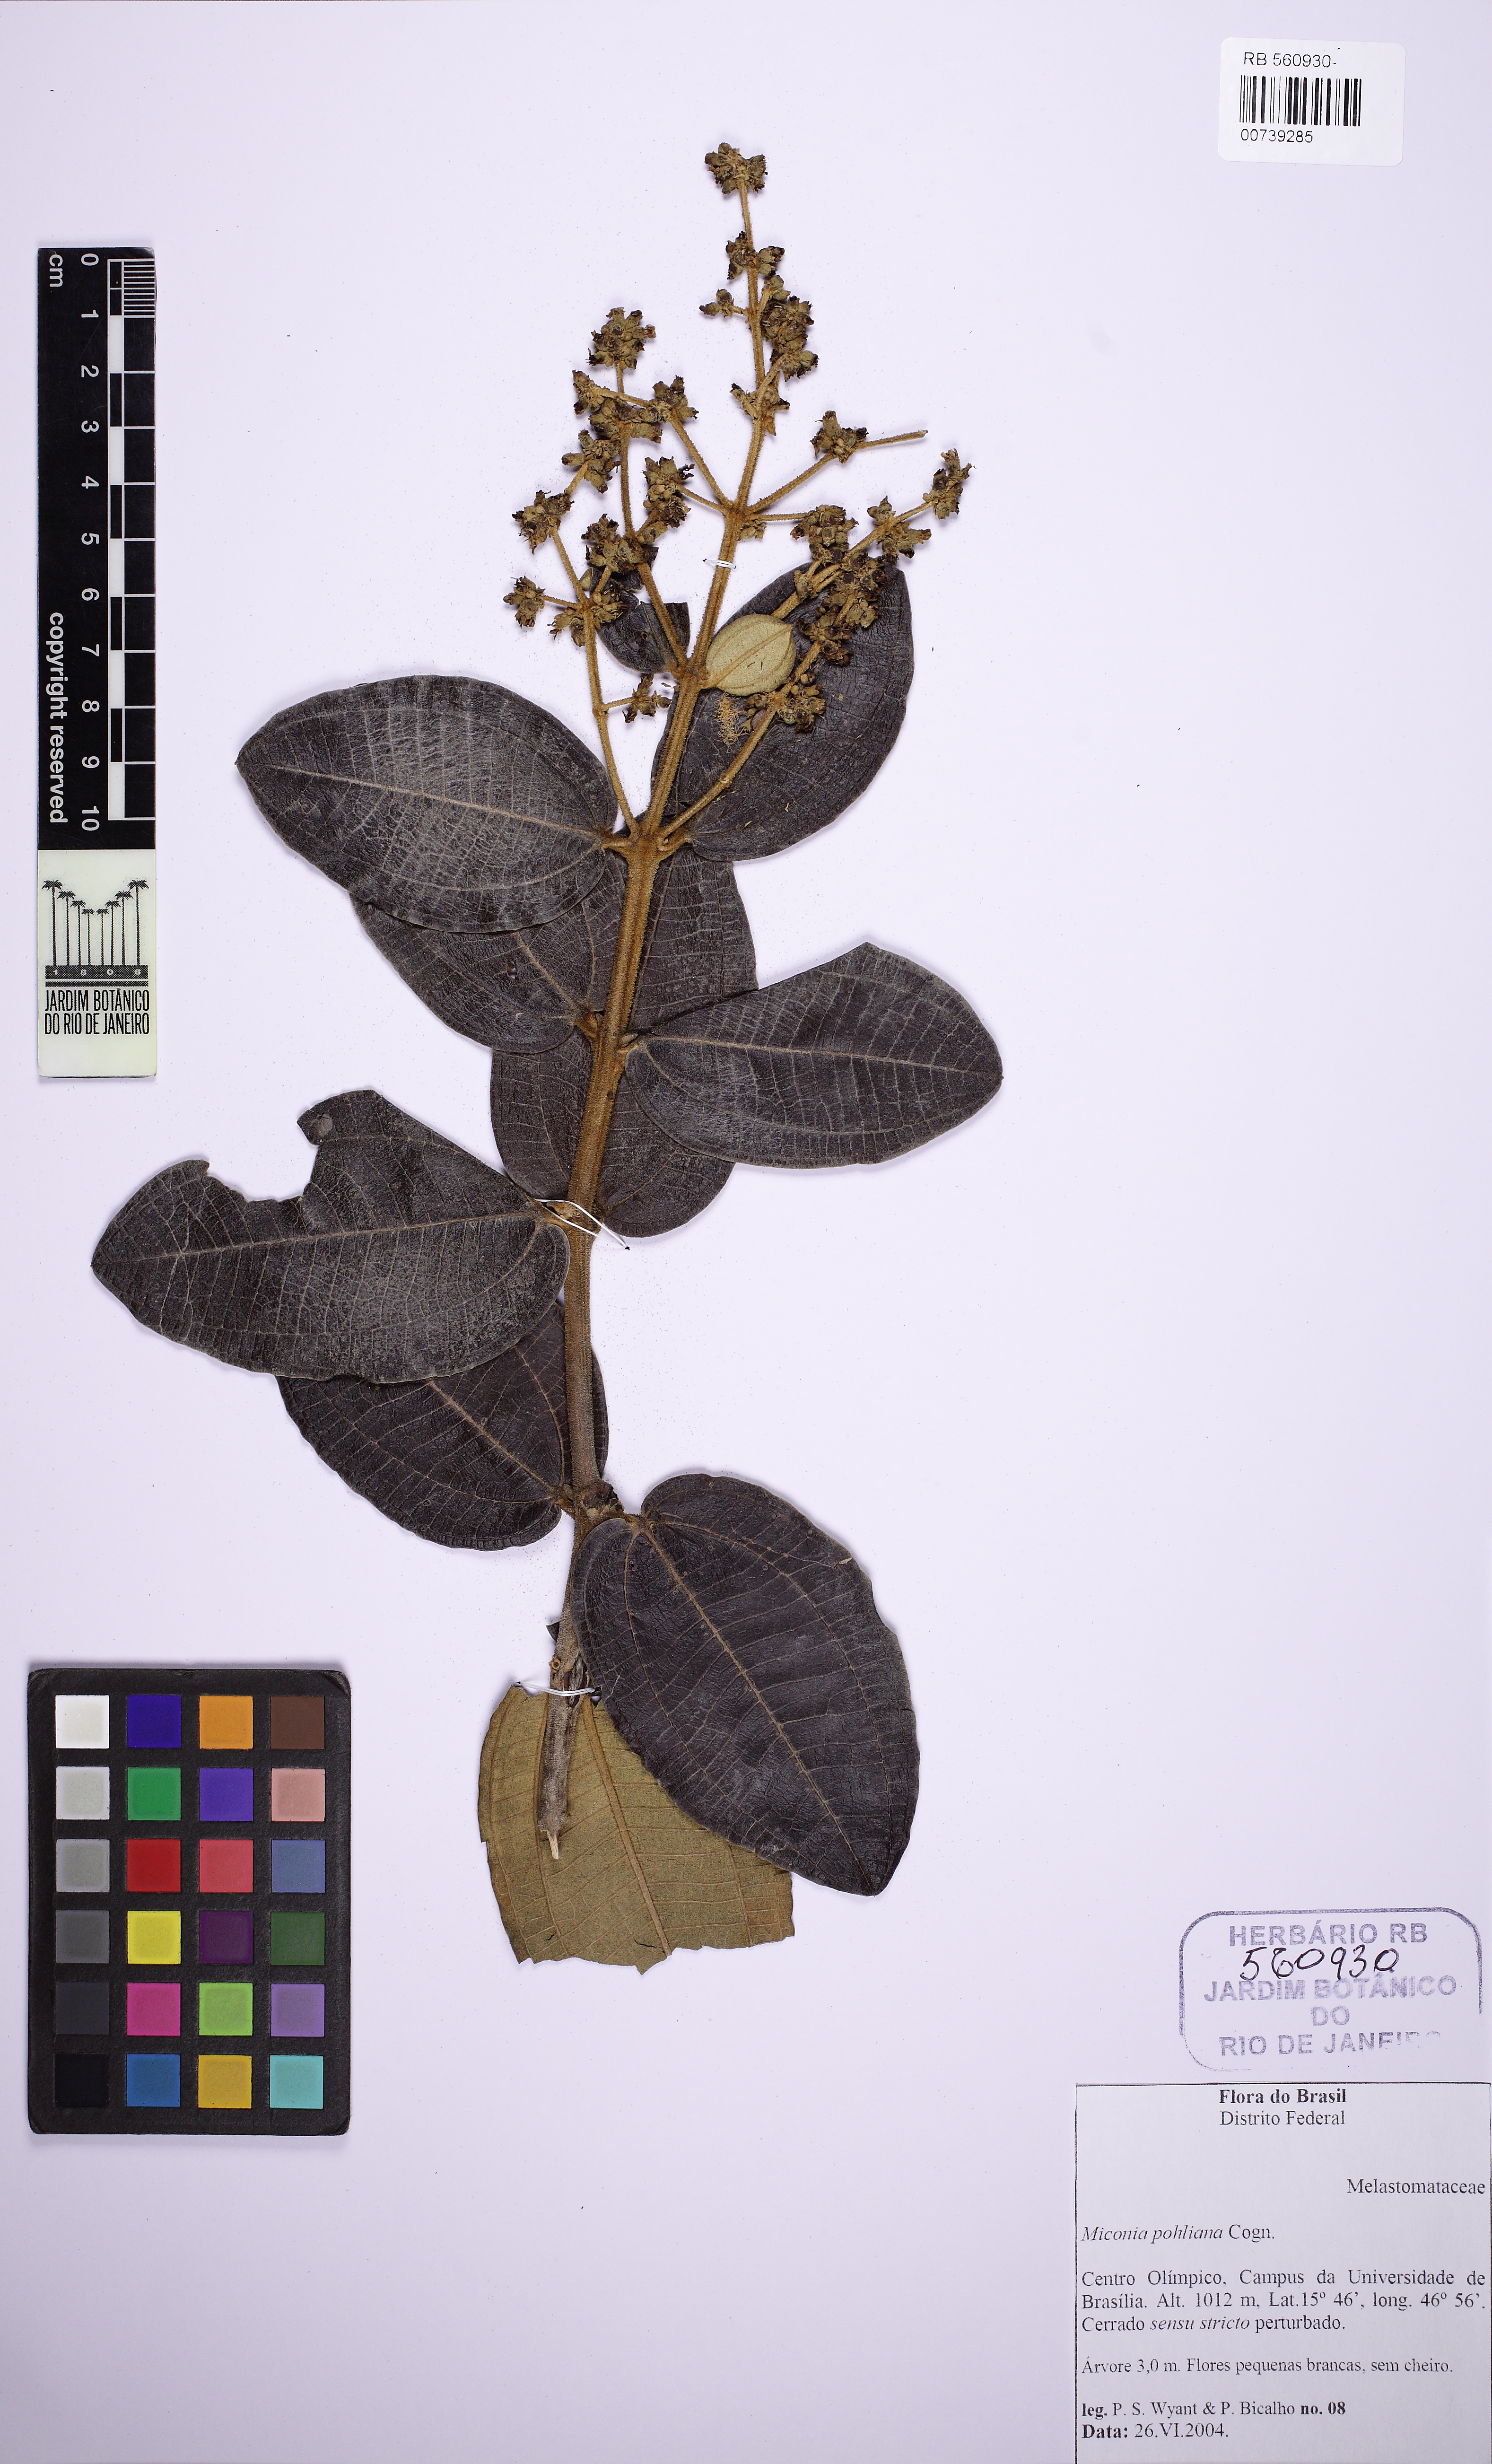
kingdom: Plantae
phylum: Tracheophyta
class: Magnoliopsida
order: Myrtales
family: Melastomataceae
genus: Miconia
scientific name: Miconia leucocarpa
